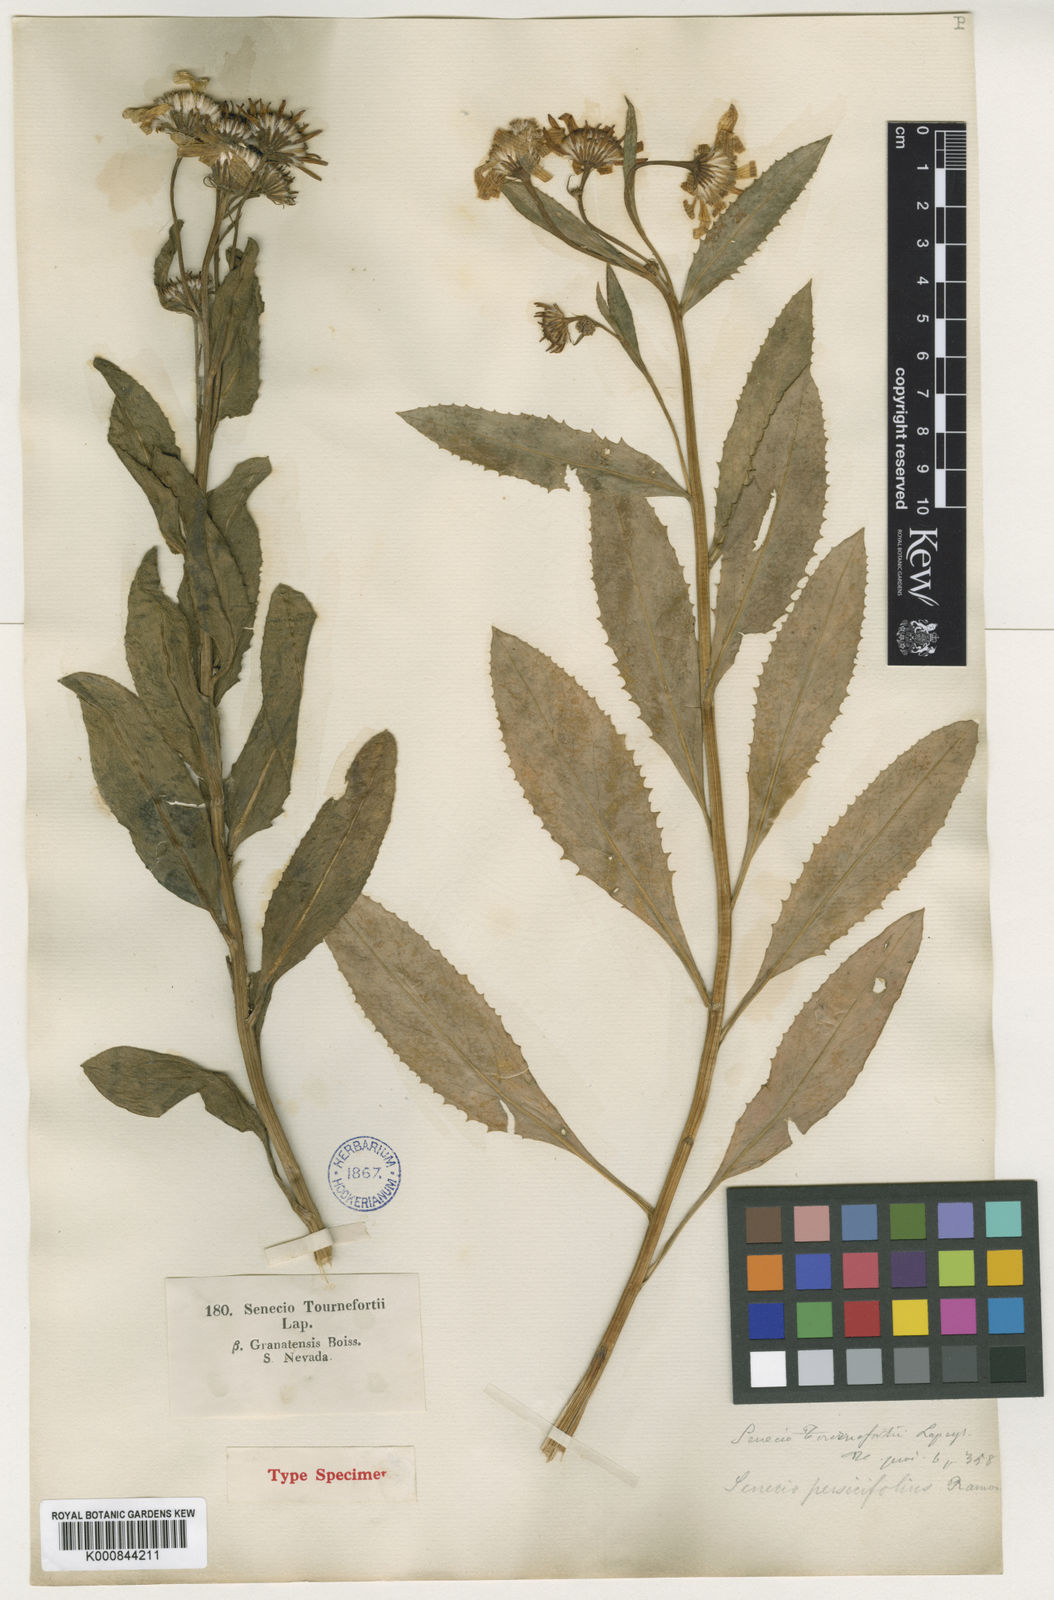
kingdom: Plantae
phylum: Tracheophyta
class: Magnoliopsida
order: Asterales
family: Asteraceae
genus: Tephroseris
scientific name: Tephroseris helenitis
